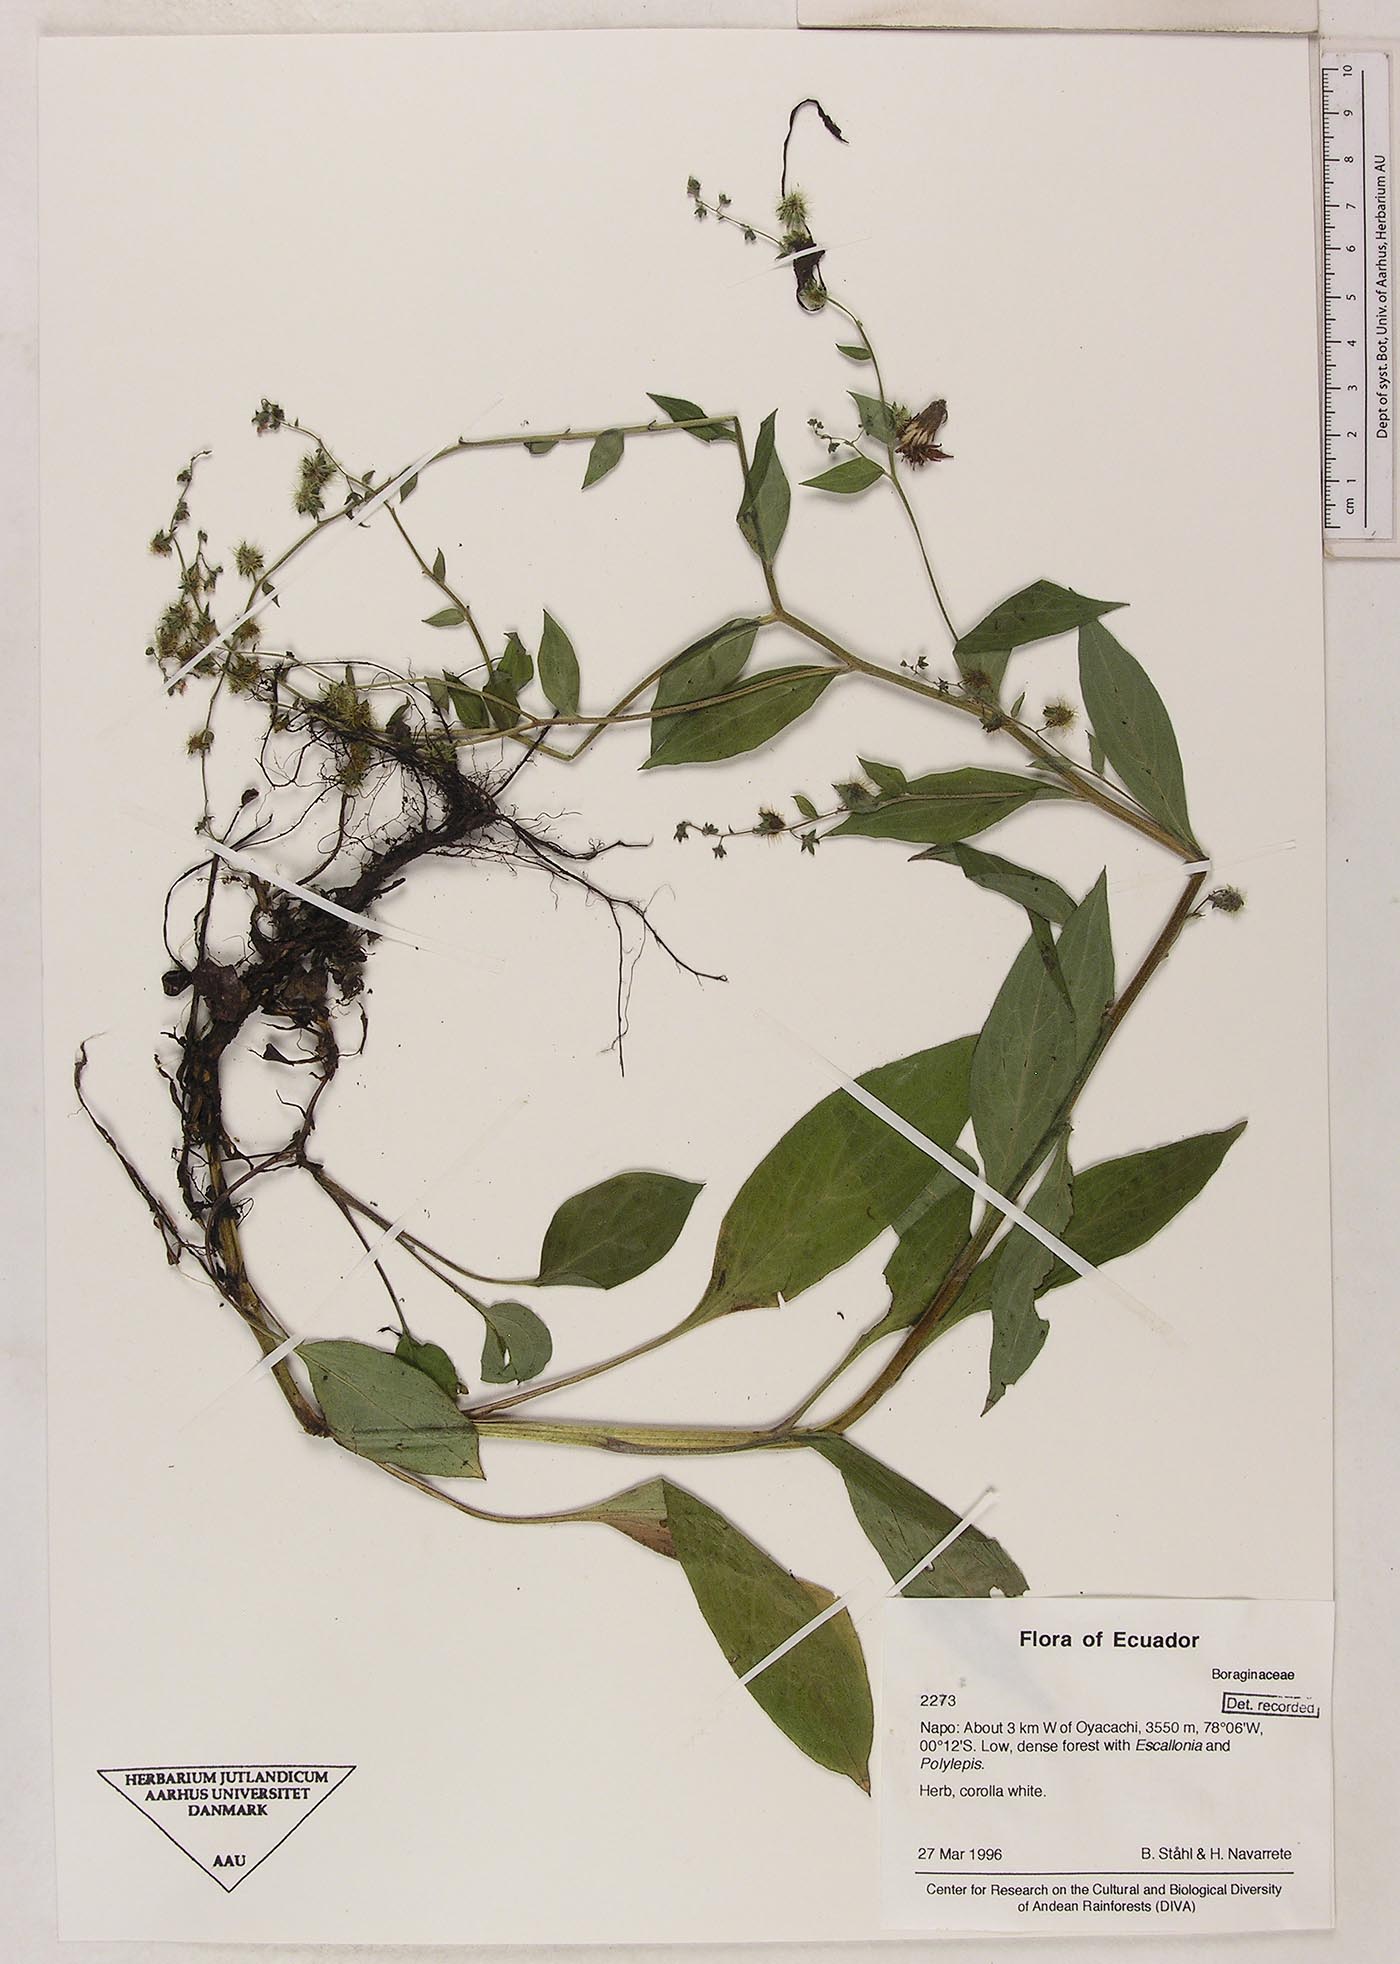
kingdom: Plantae
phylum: Tracheophyta
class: Magnoliopsida
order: Boraginales
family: Boraginaceae
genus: Hackelia
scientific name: Hackelia revoluta
